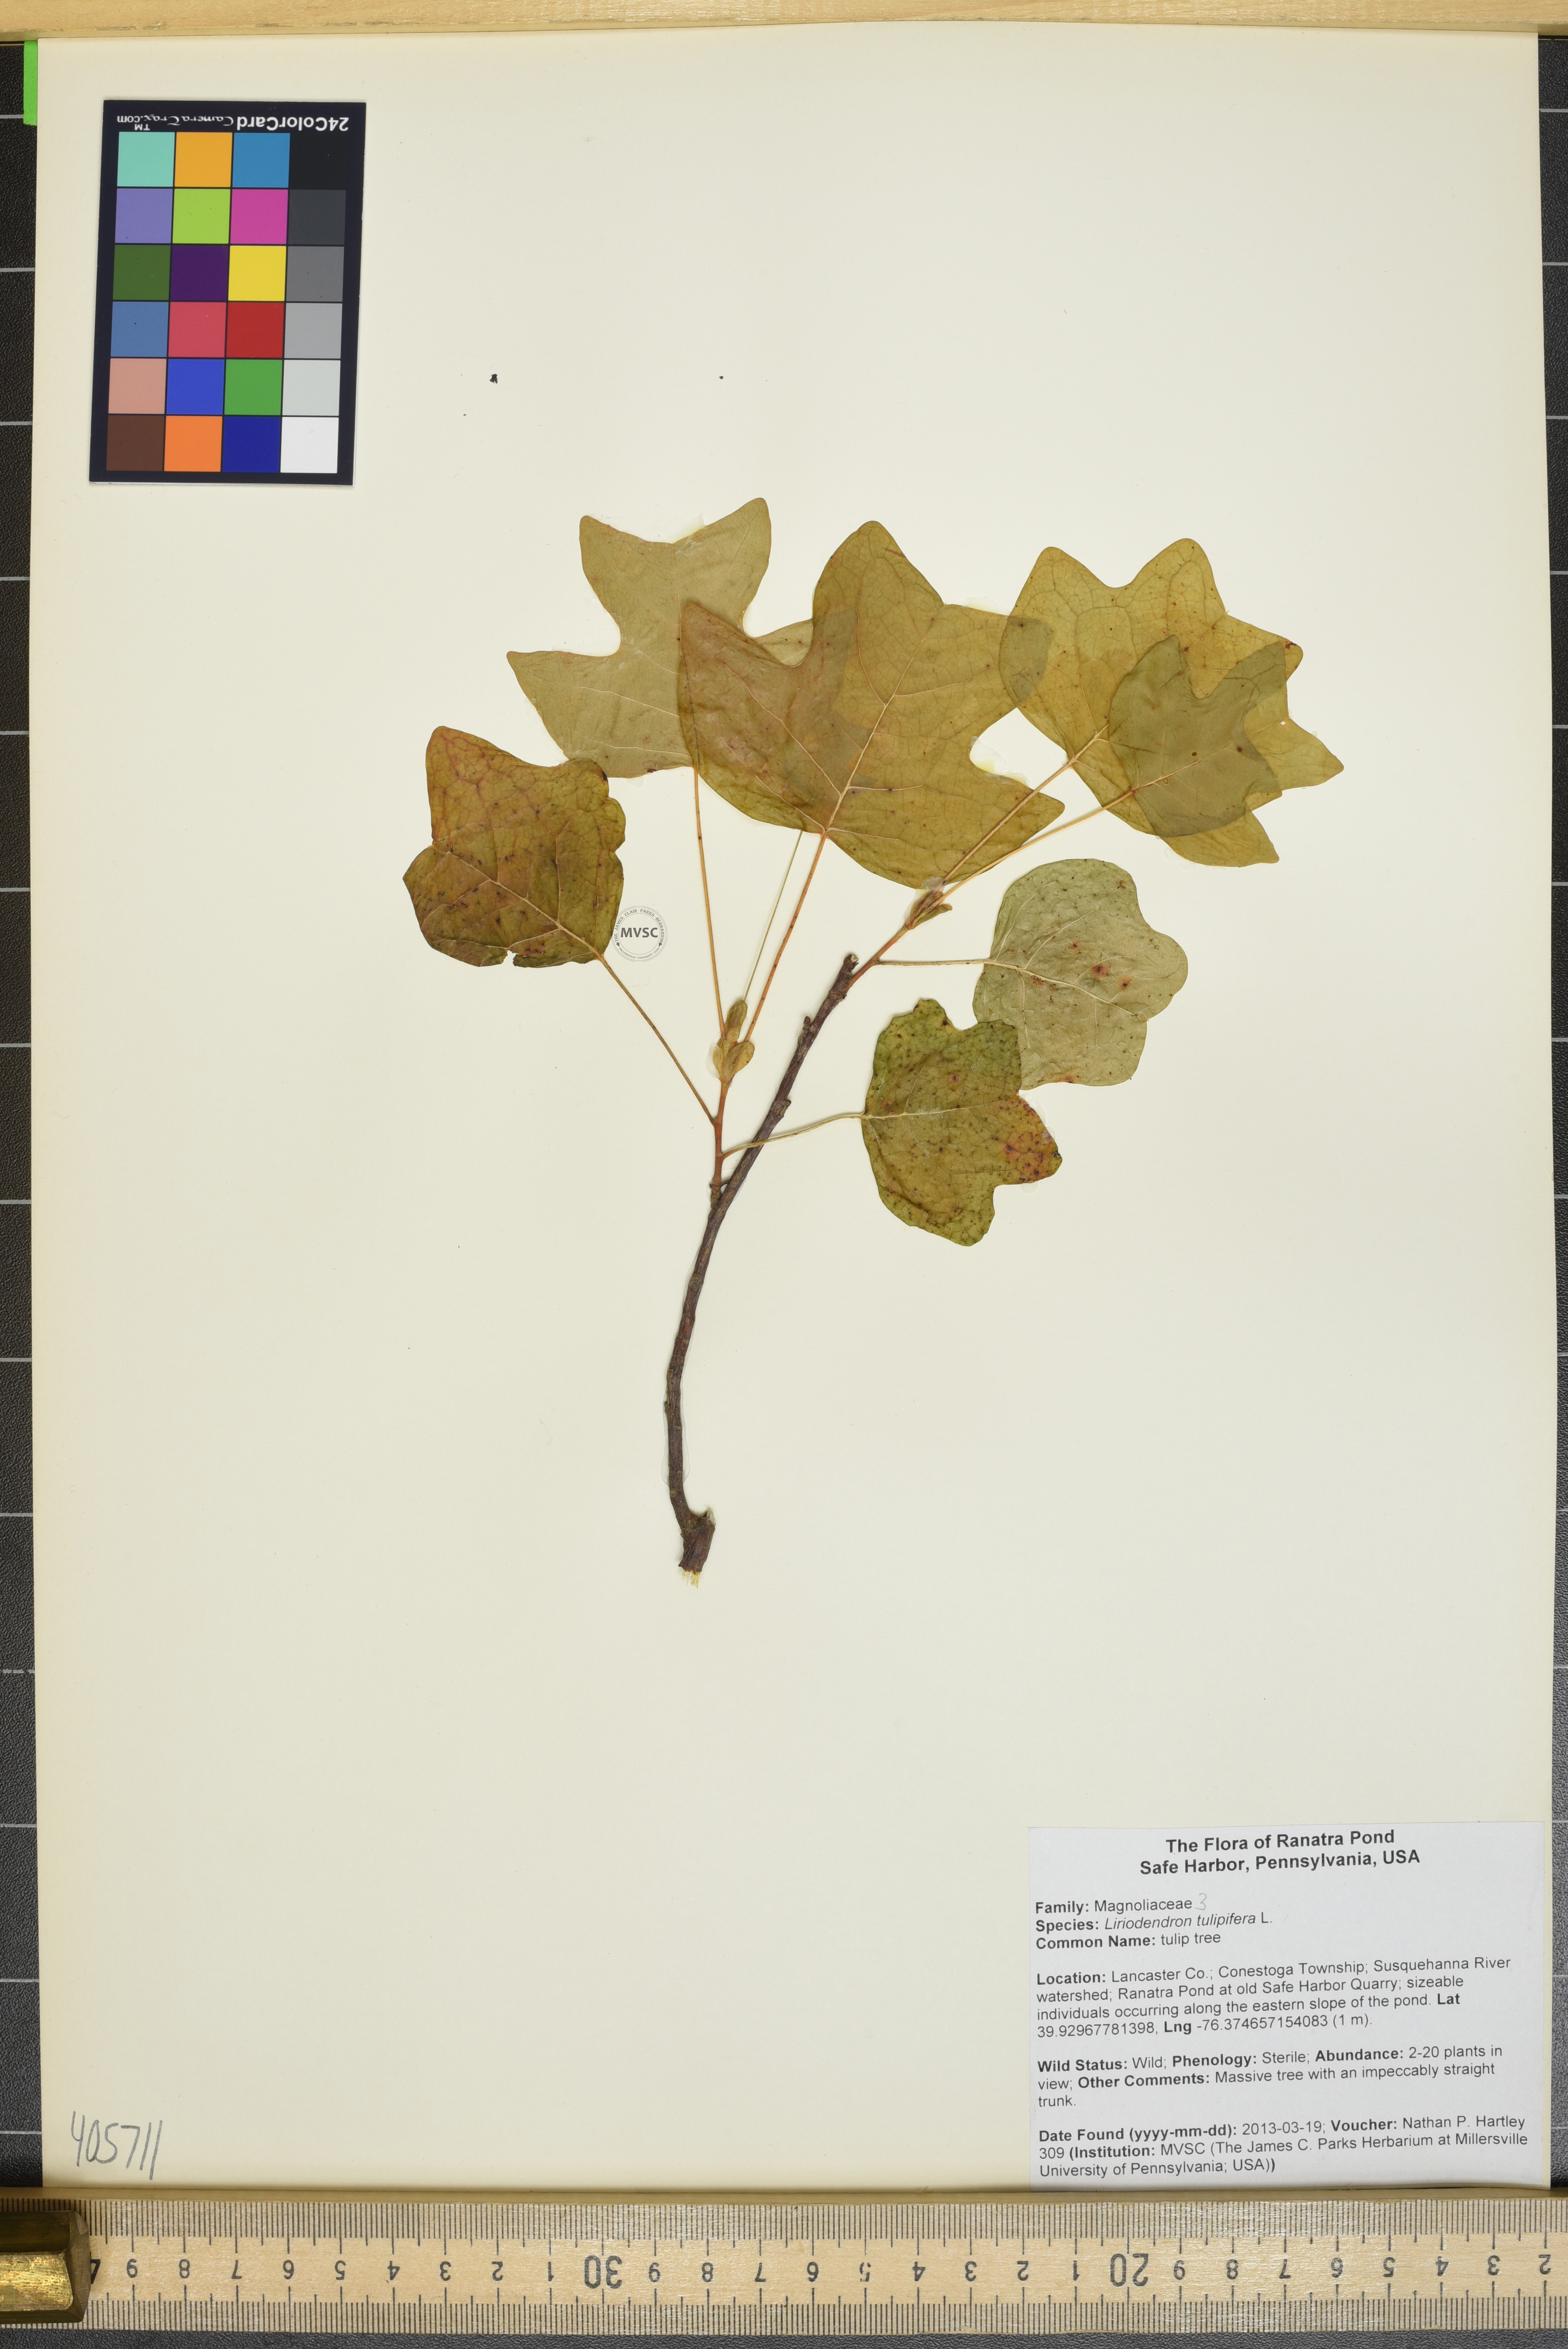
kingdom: Plantae
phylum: Tracheophyta
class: Magnoliopsida
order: Magnoliales
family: Magnoliaceae
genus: Liriodendron
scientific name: Liriodendron tulipifera
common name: tulip tree
